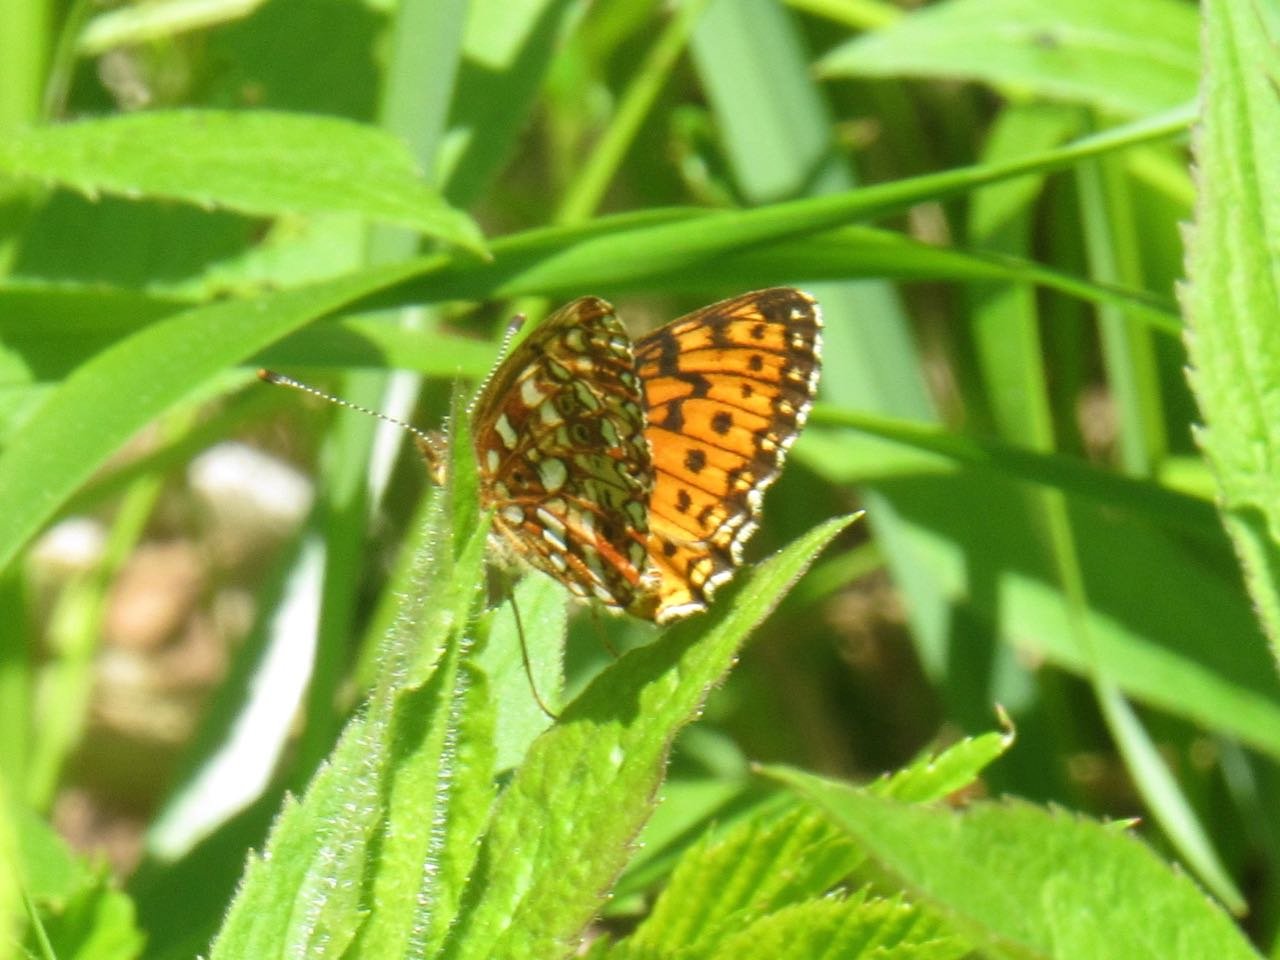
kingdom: Animalia
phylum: Arthropoda
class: Insecta
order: Lepidoptera
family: Nymphalidae
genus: Boloria
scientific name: Boloria selene
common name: Silver-bordered Fritillary
